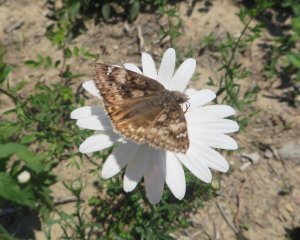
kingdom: Animalia
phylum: Arthropoda
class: Insecta
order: Lepidoptera
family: Hesperiidae
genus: Gesta
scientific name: Gesta
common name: Juvenal's Duskywing
